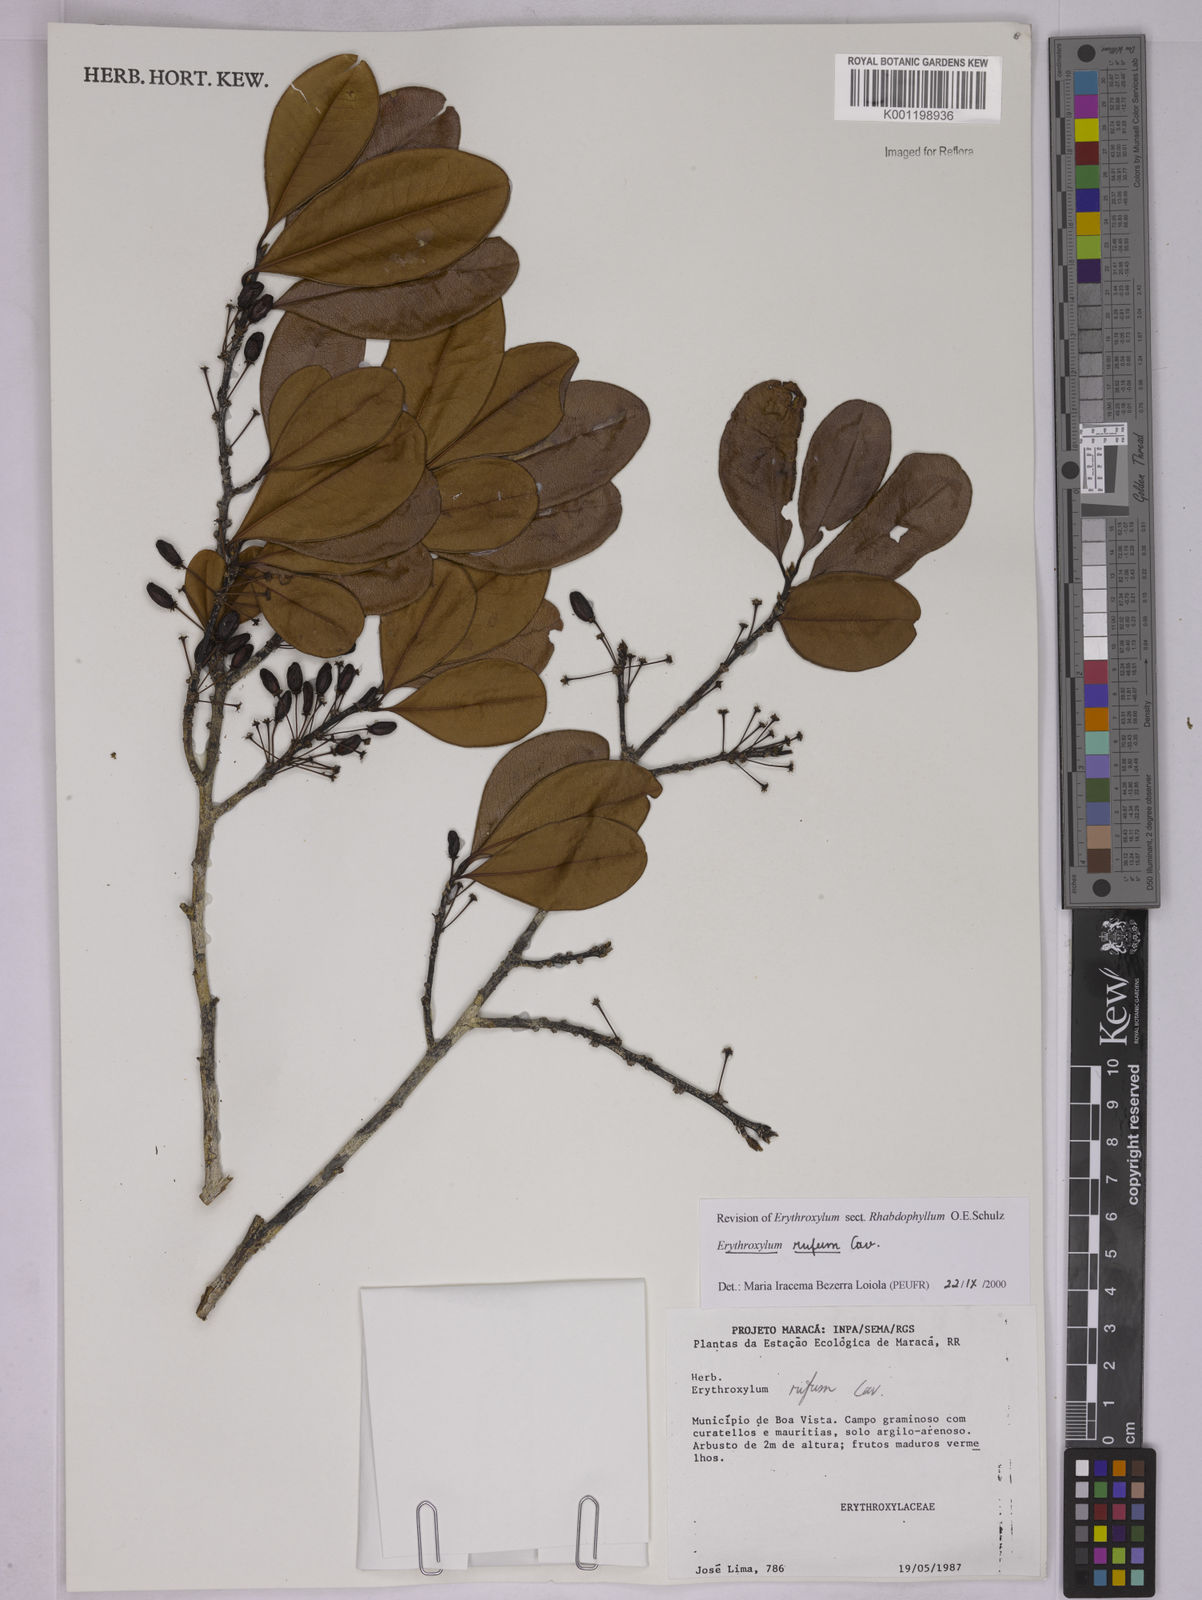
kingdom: Plantae
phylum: Tracheophyta
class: Magnoliopsida
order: Malpighiales
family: Erythroxylaceae
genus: Erythroxylum
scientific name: Erythroxylum rufum
